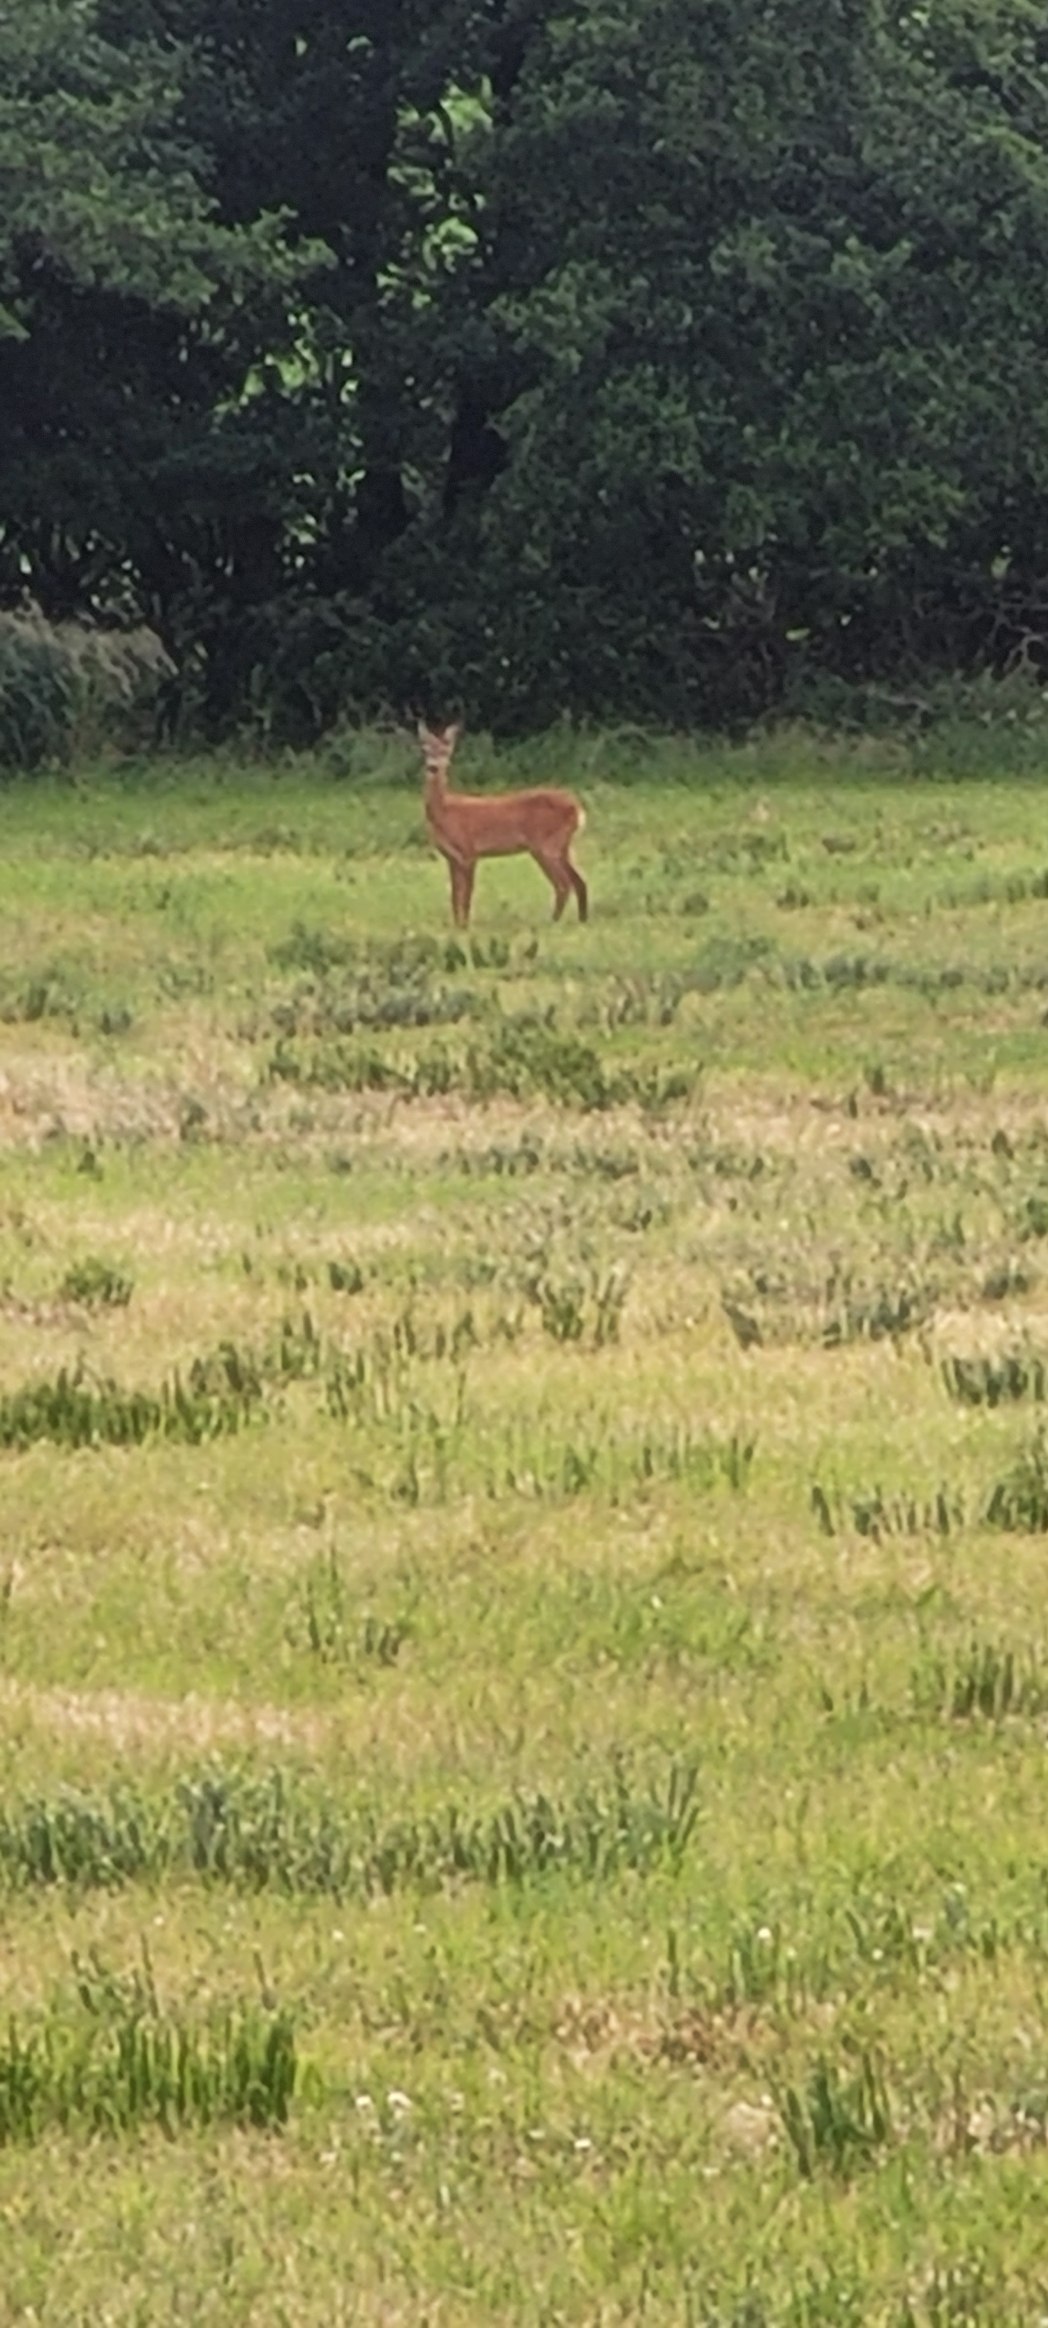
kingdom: Animalia
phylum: Chordata
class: Mammalia
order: Artiodactyla
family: Cervidae
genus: Capreolus
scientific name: Capreolus capreolus
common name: Rådyr
